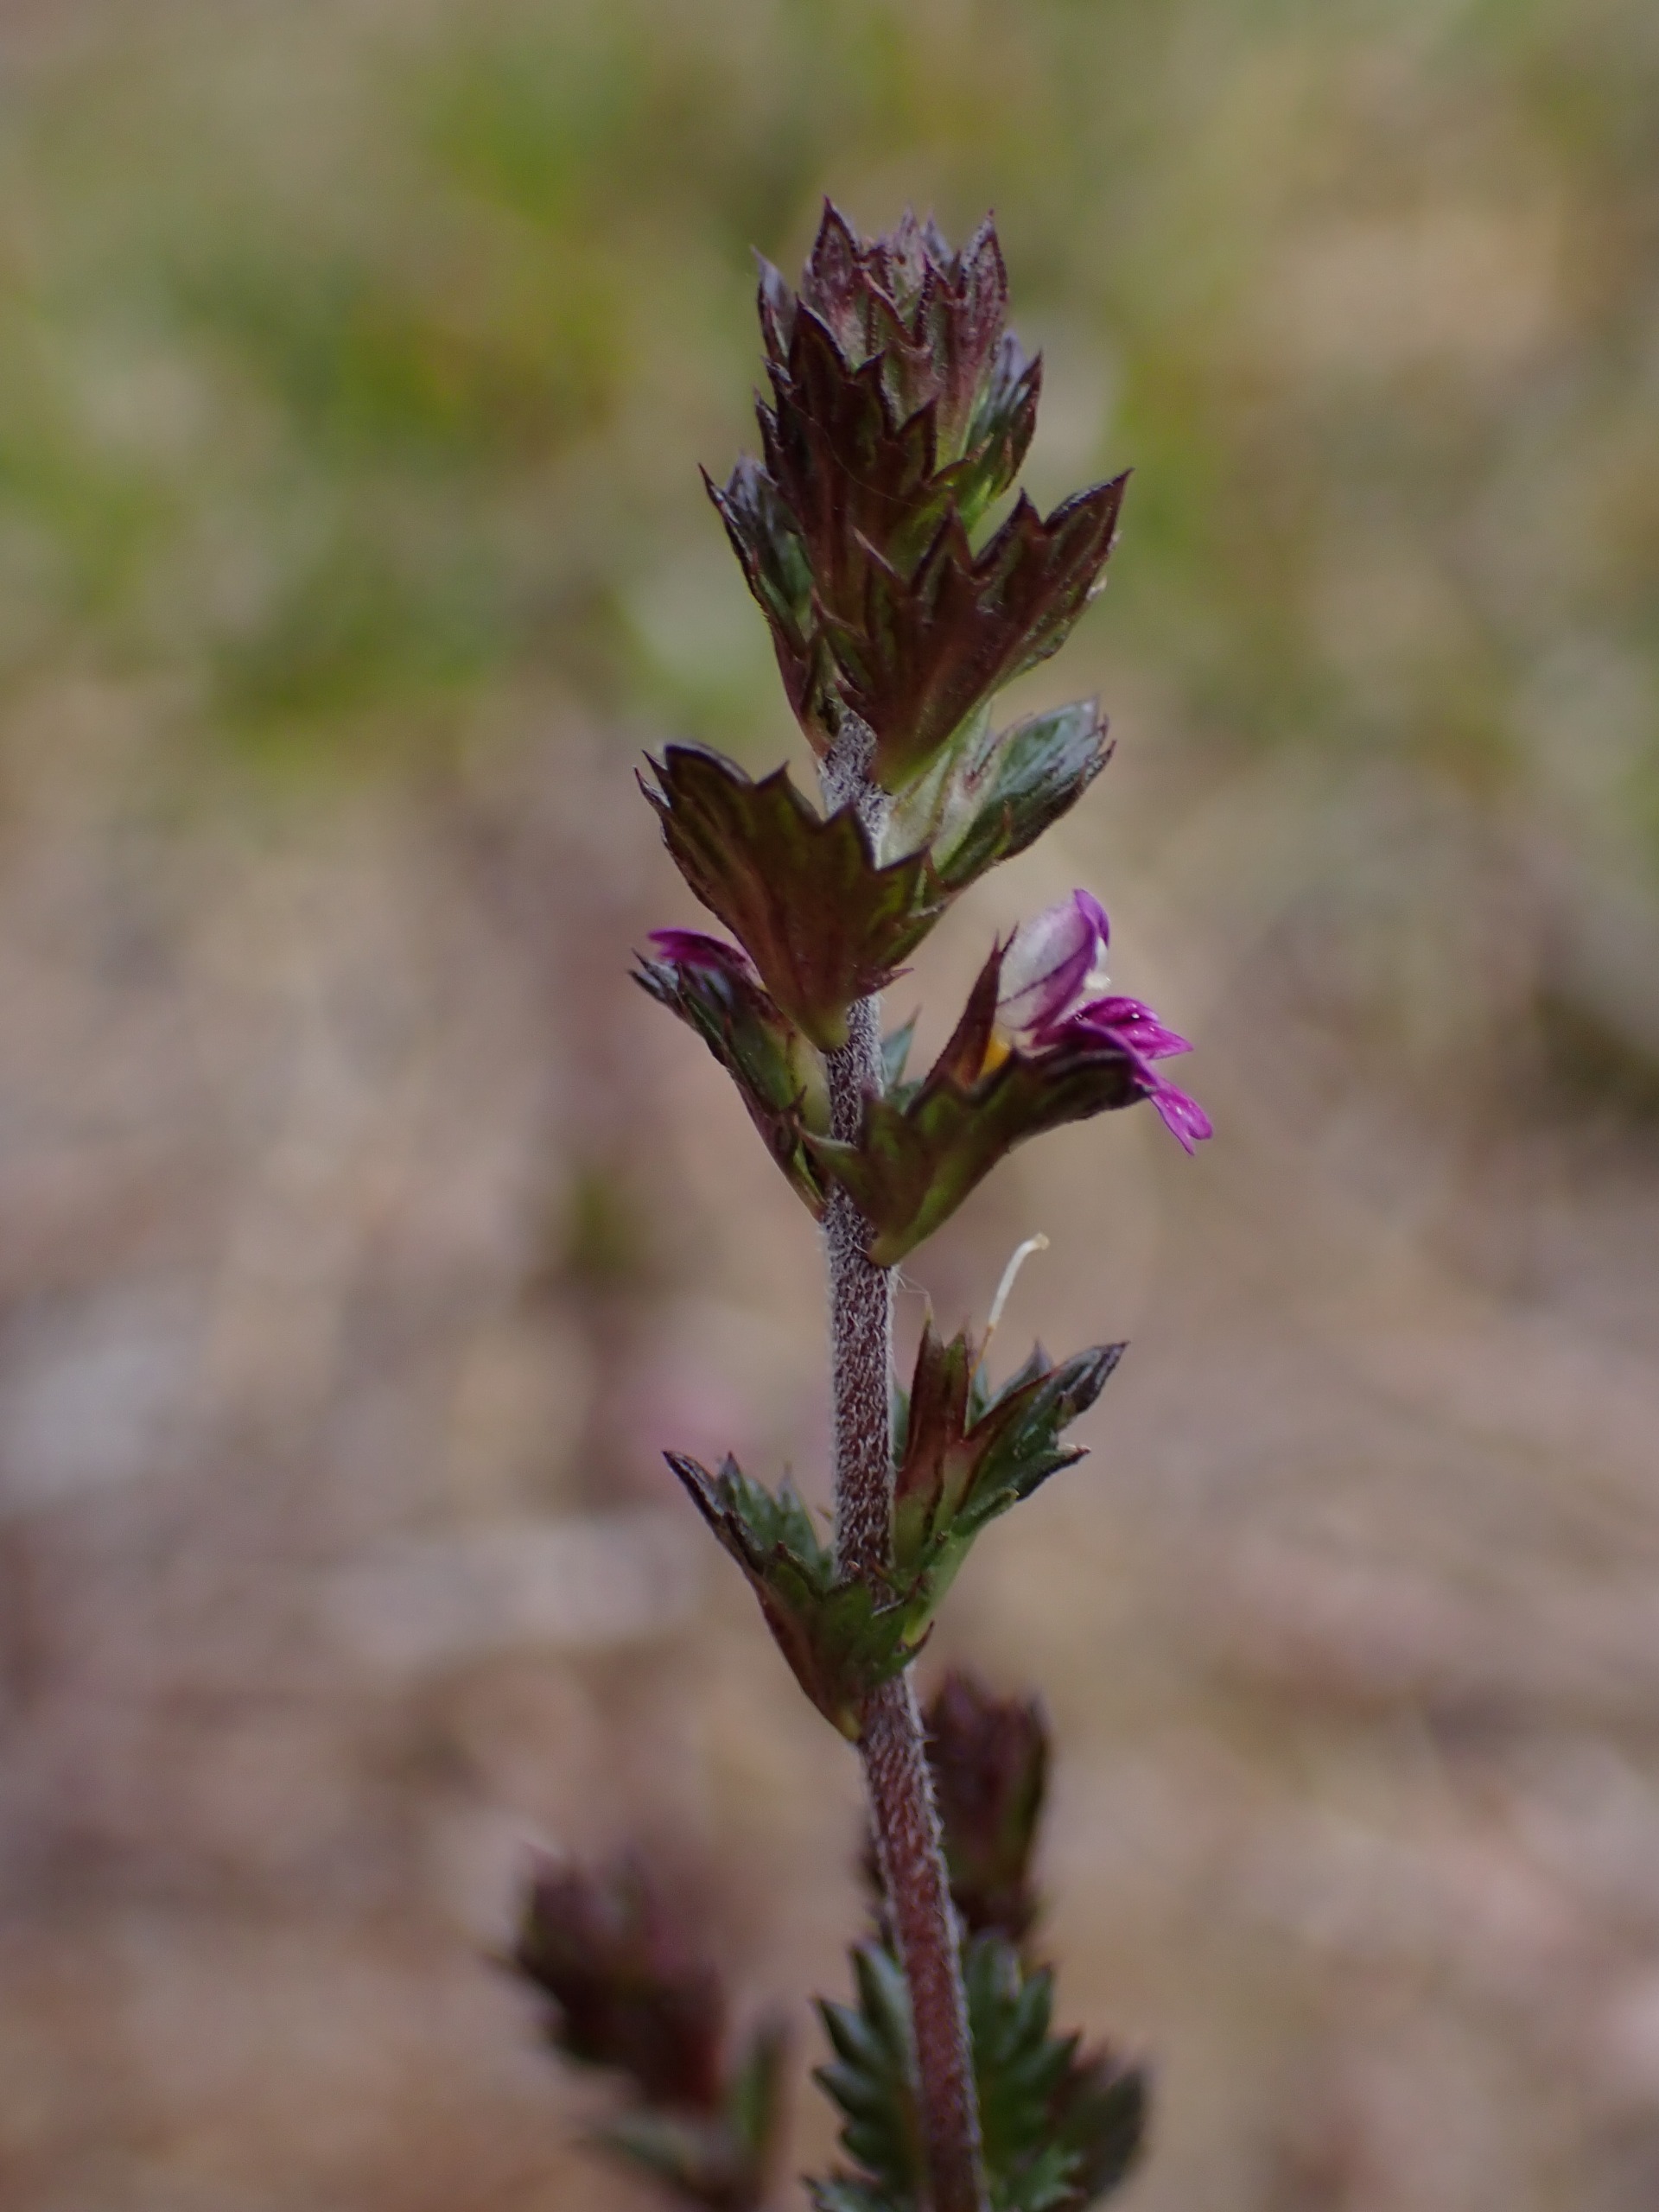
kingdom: Plantae
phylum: Tracheophyta
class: Magnoliopsida
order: Lamiales
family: Orobanchaceae
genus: Euphrasia
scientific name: Euphrasia micrantha
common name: Lyng-øjentrøst
